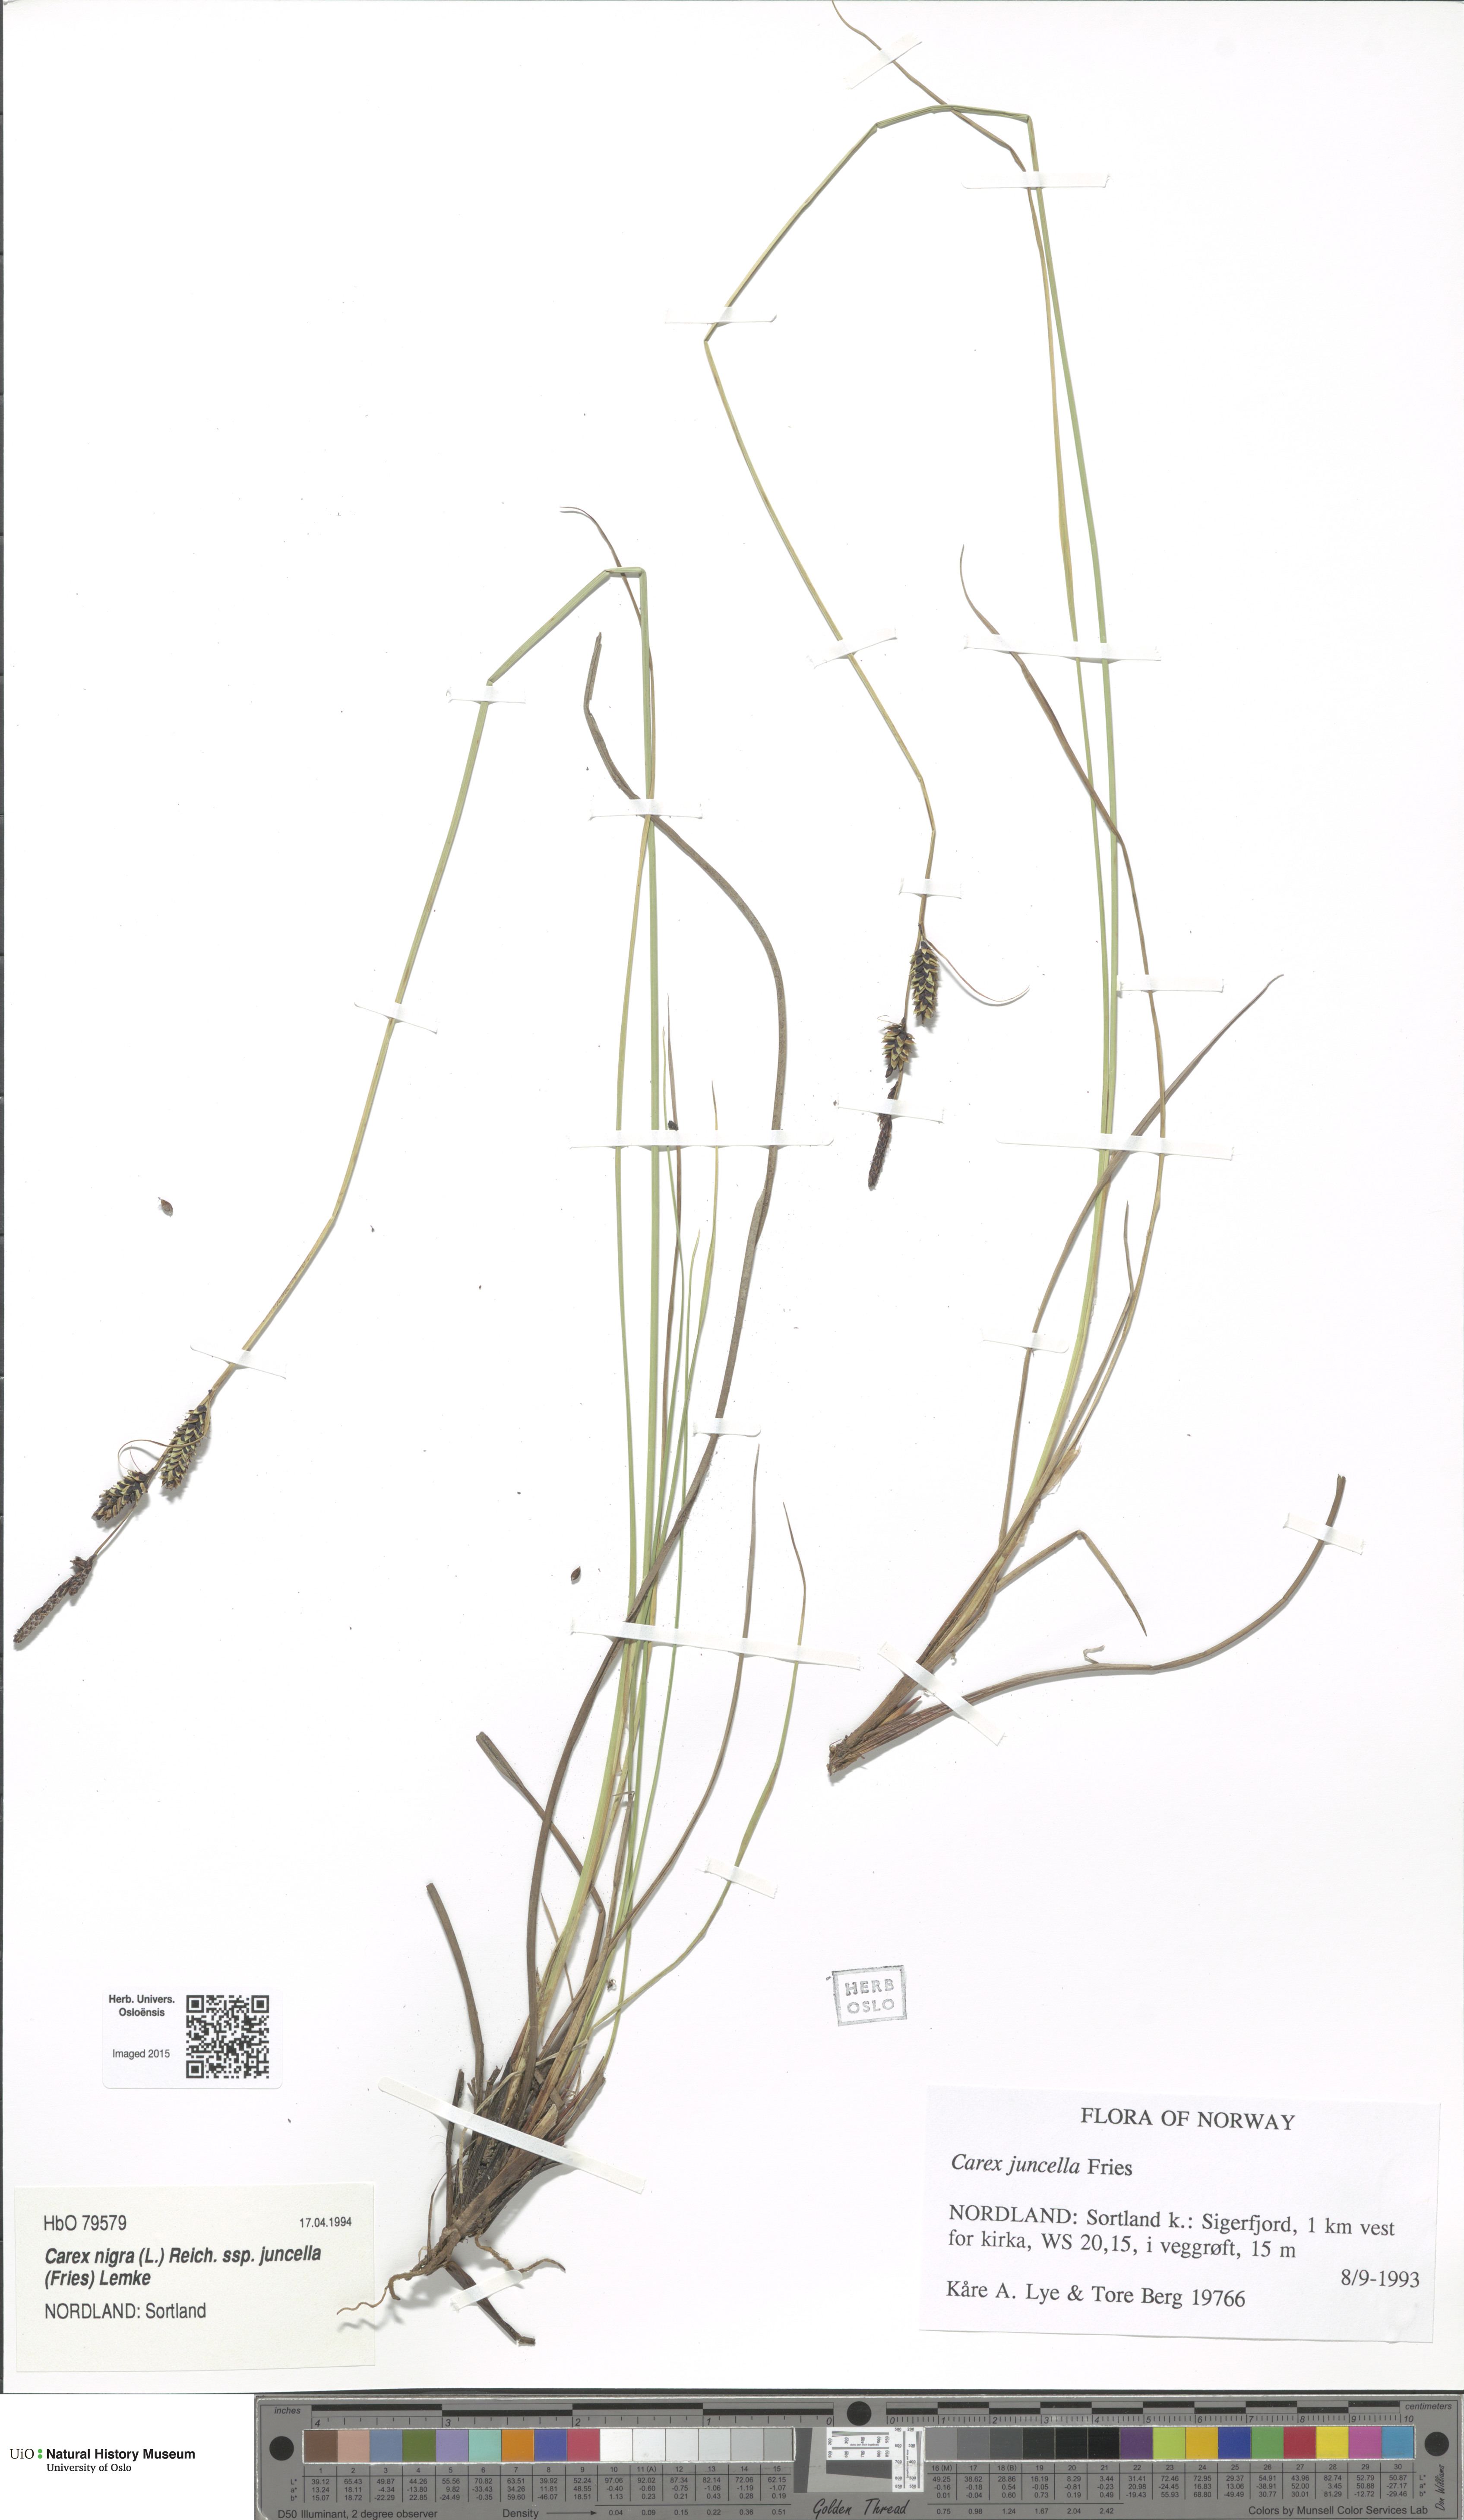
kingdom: Plantae
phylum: Tracheophyta
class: Liliopsida
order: Poales
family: Cyperaceae
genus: Carex
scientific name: Carex nigra
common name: Common sedge
